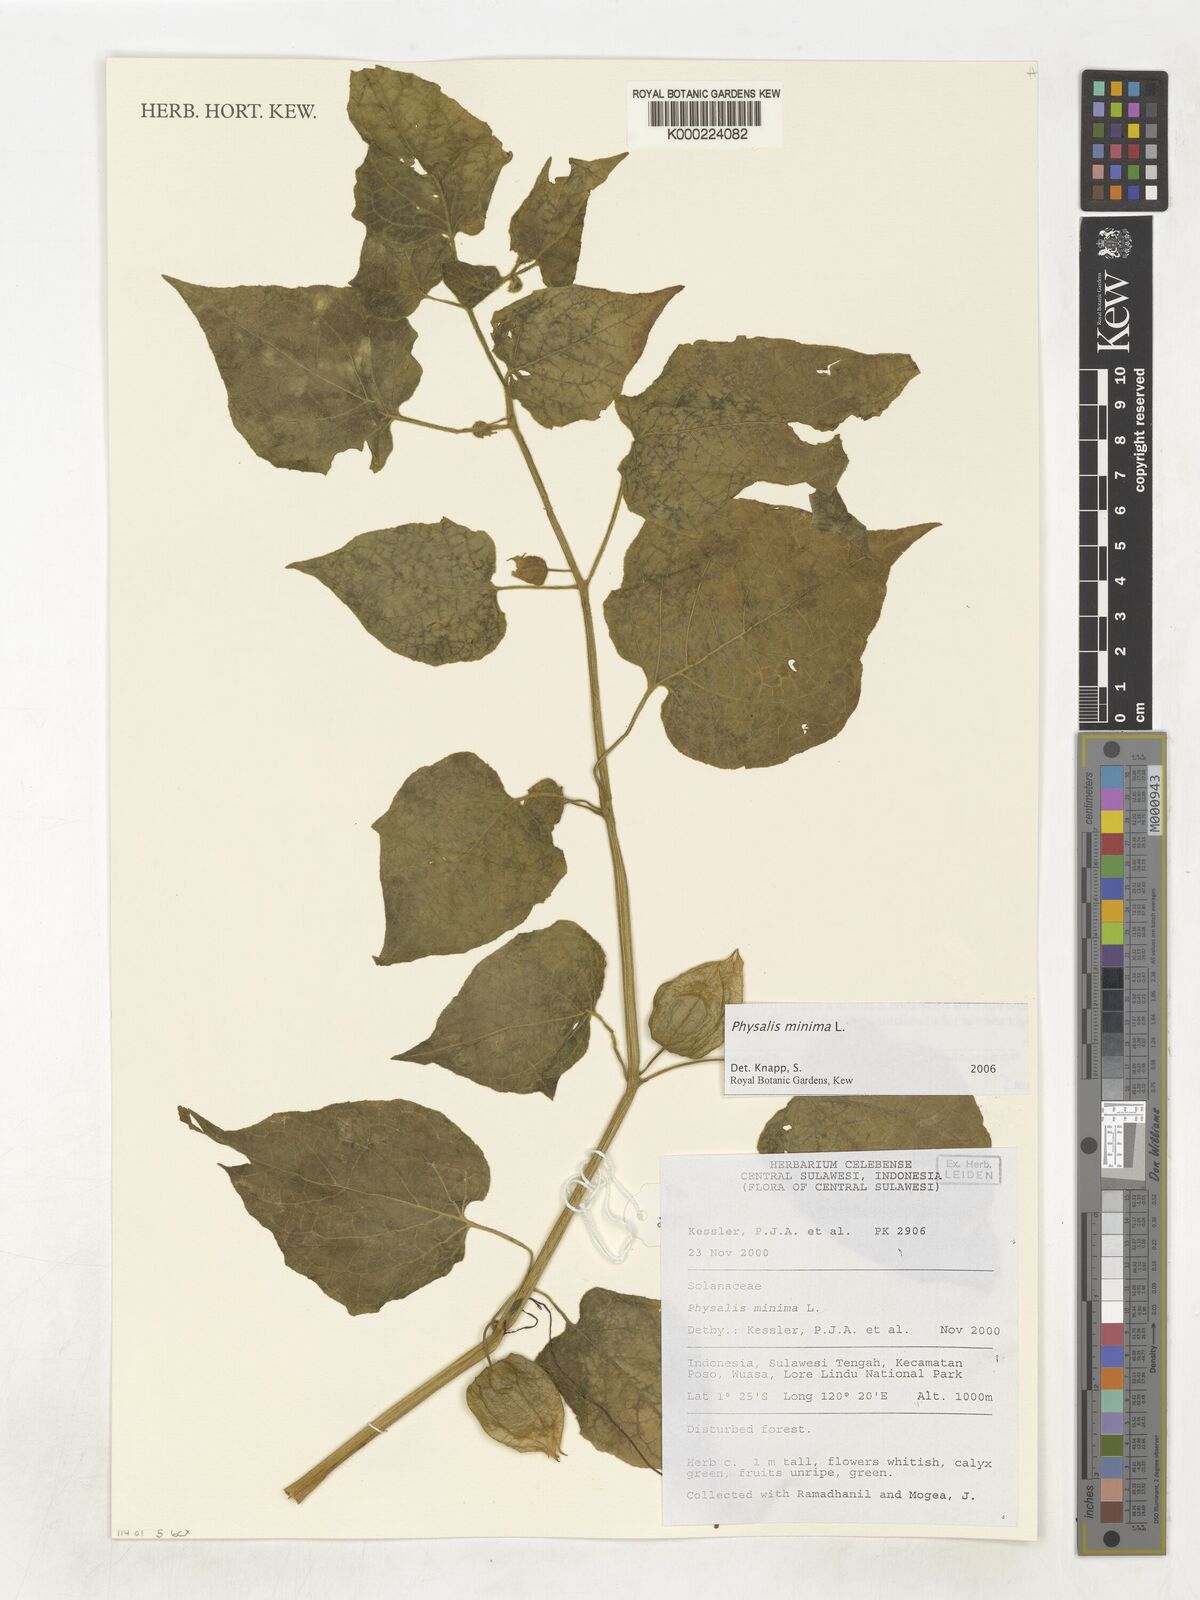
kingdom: Plantae
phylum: Tracheophyta
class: Magnoliopsida
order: Solanales
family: Solanaceae
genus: Physalis
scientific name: Physalis angulata
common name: Angular winter-cherry
